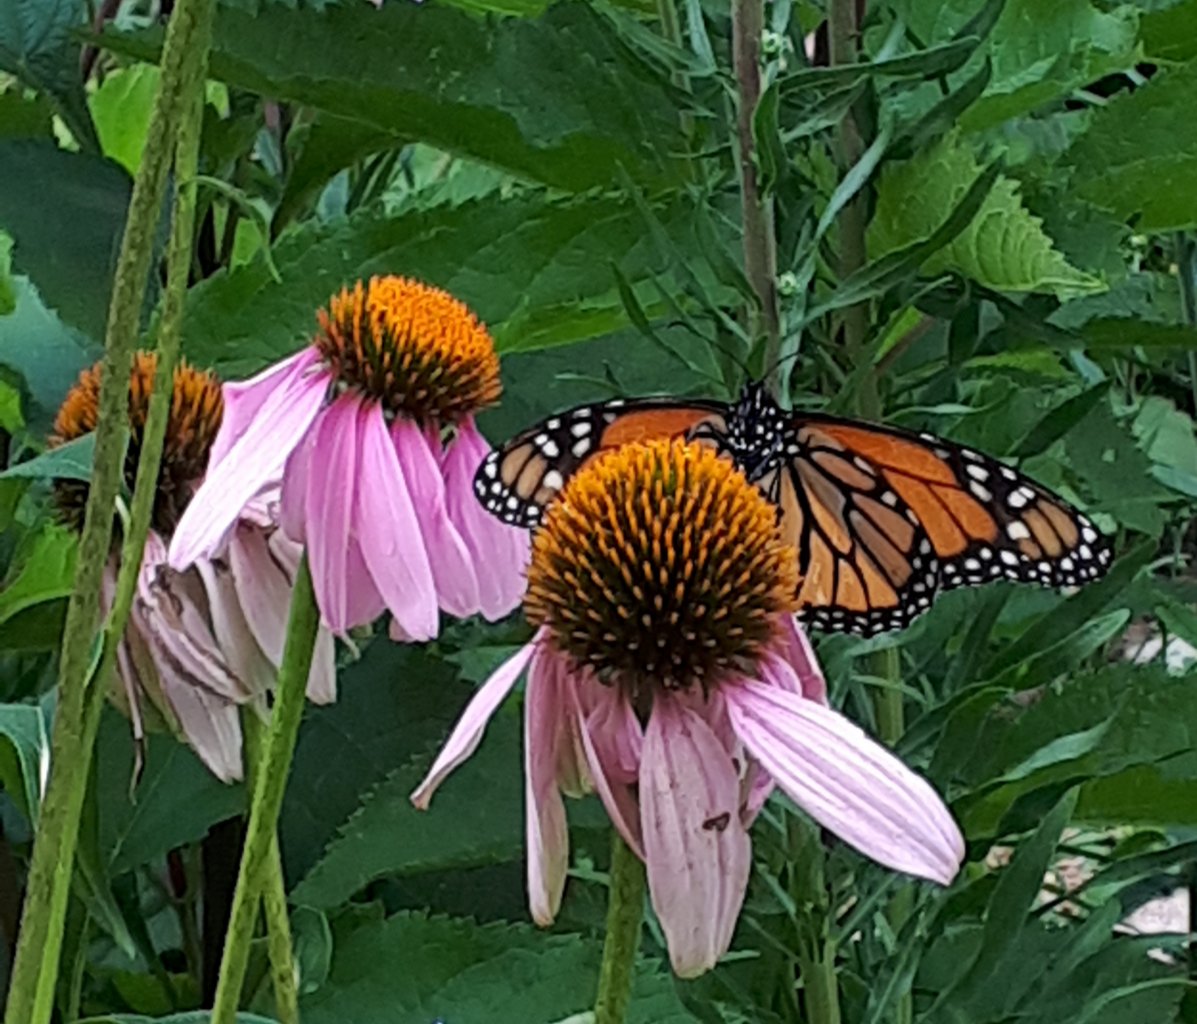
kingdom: Animalia
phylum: Arthropoda
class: Insecta
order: Lepidoptera
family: Nymphalidae
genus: Danaus
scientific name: Danaus plexippus
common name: Monarch
